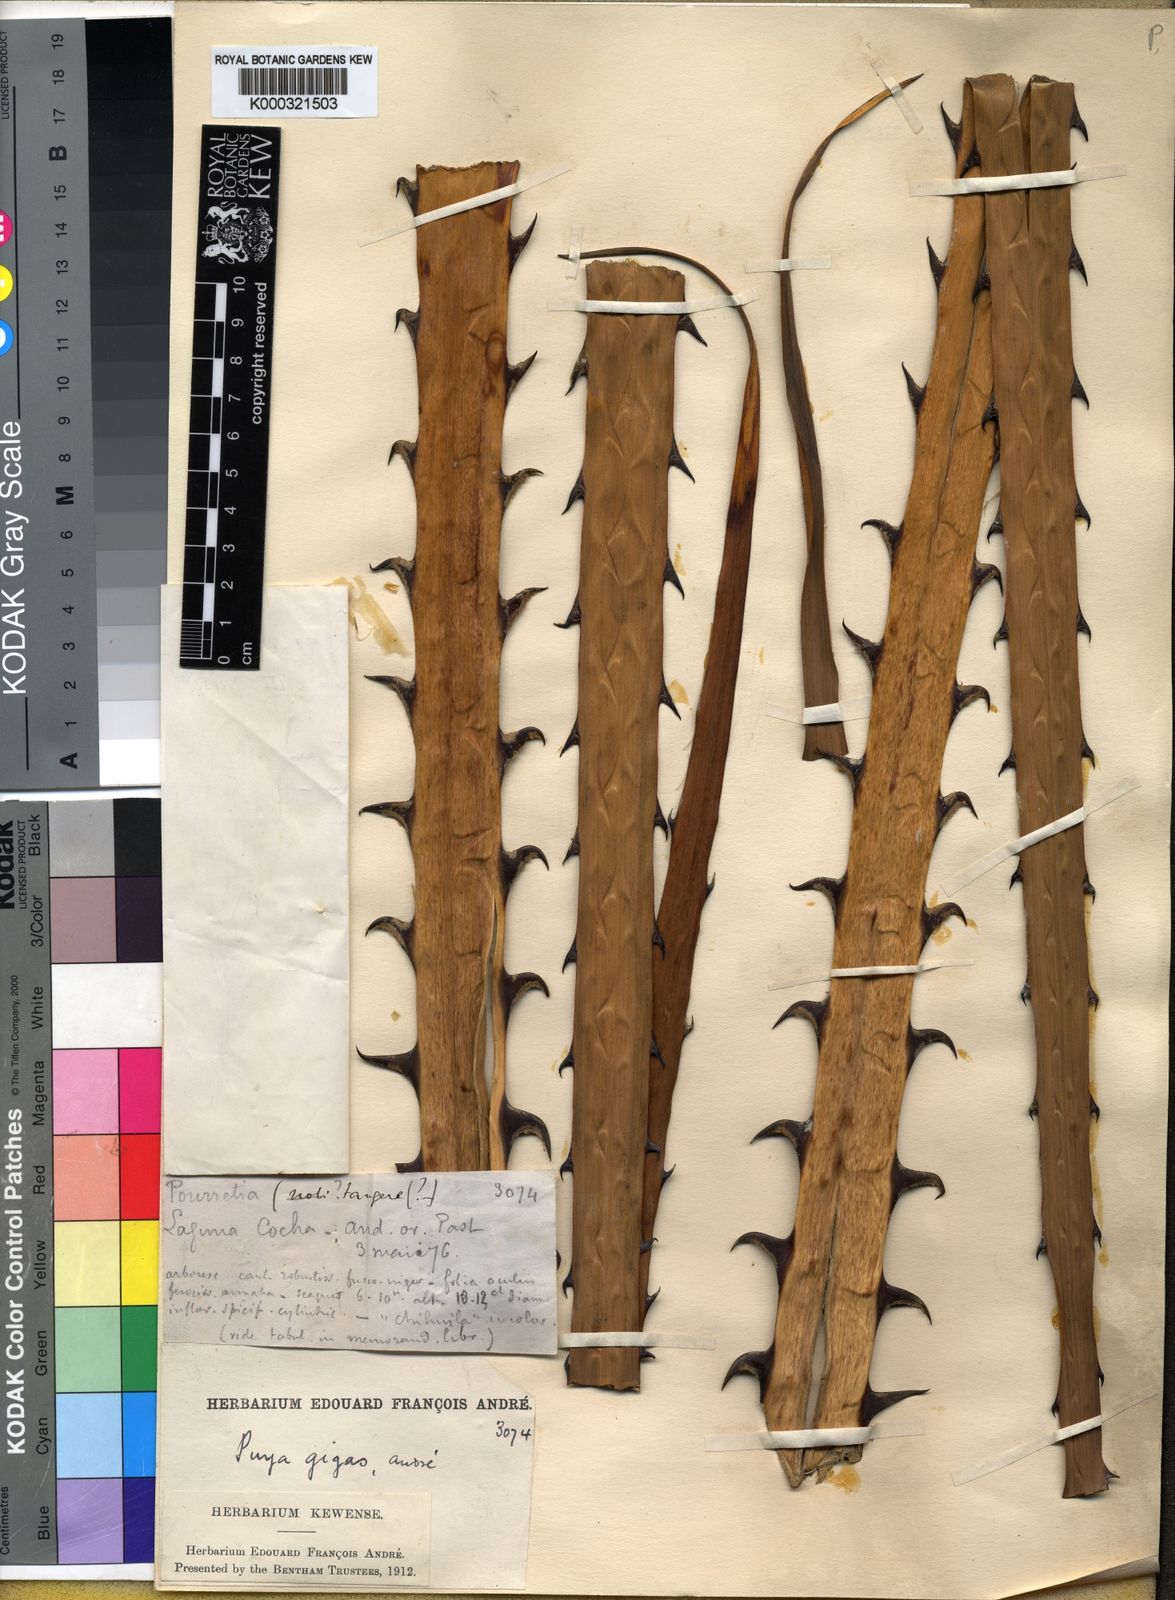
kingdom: Plantae
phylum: Tracheophyta
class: Liliopsida
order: Poales
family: Bromeliaceae
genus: Puya
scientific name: Puya gigas
